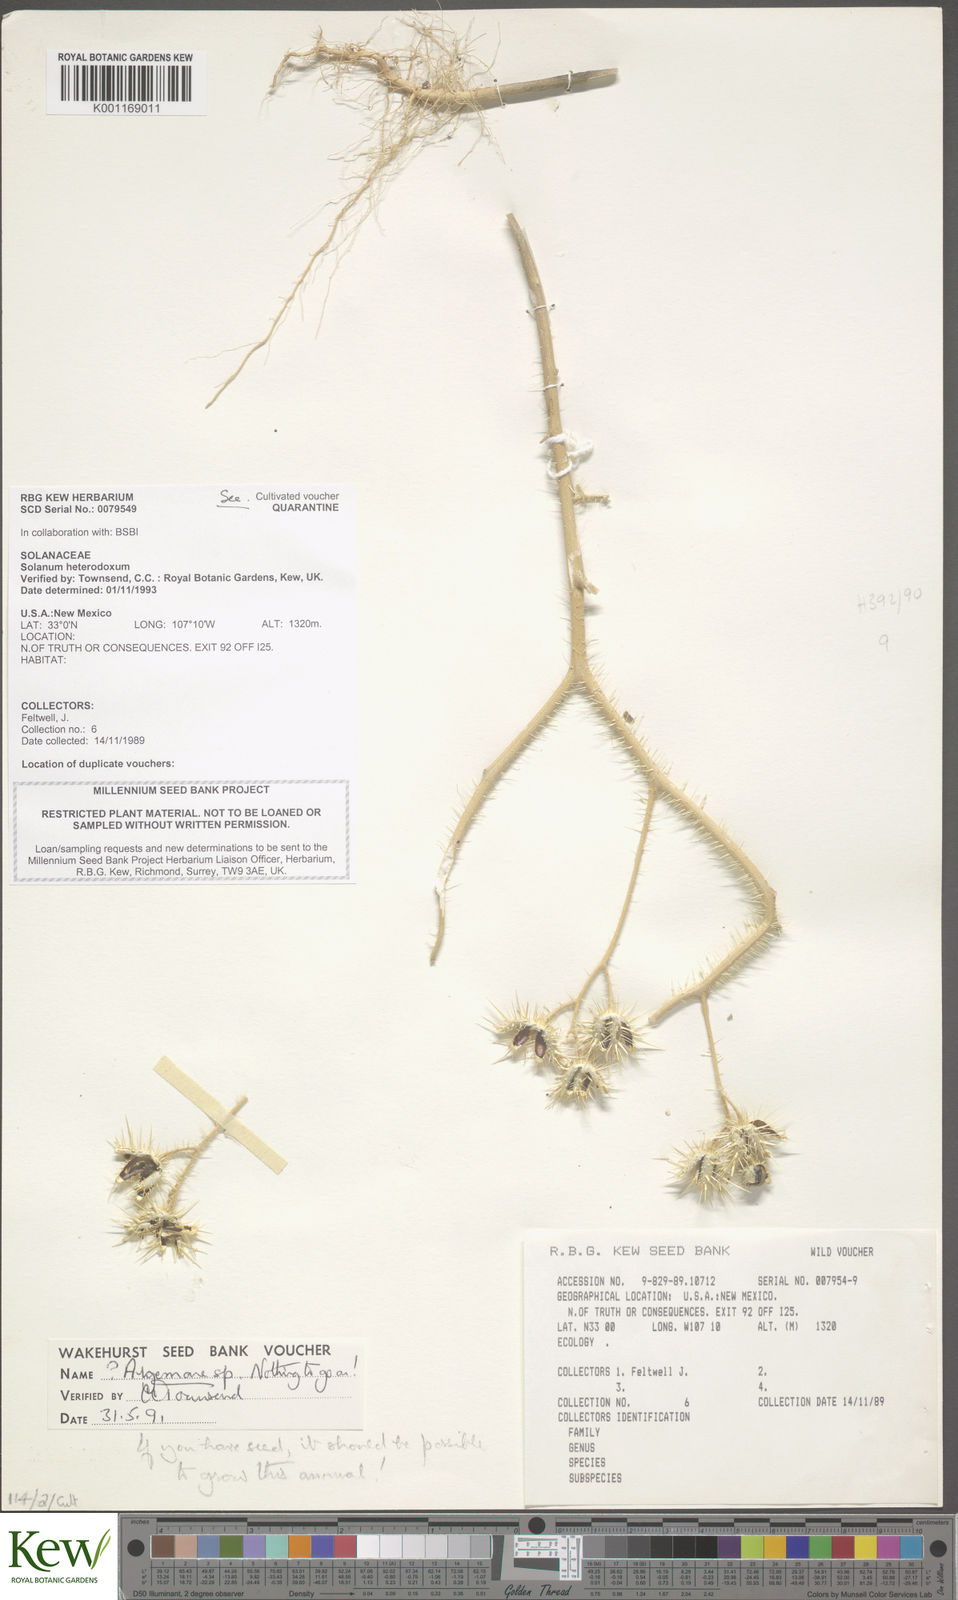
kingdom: Plantae
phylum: Tracheophyta
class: Magnoliopsida
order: Solanales
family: Solanaceae
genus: Solanum
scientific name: Solanum heterodoxum
